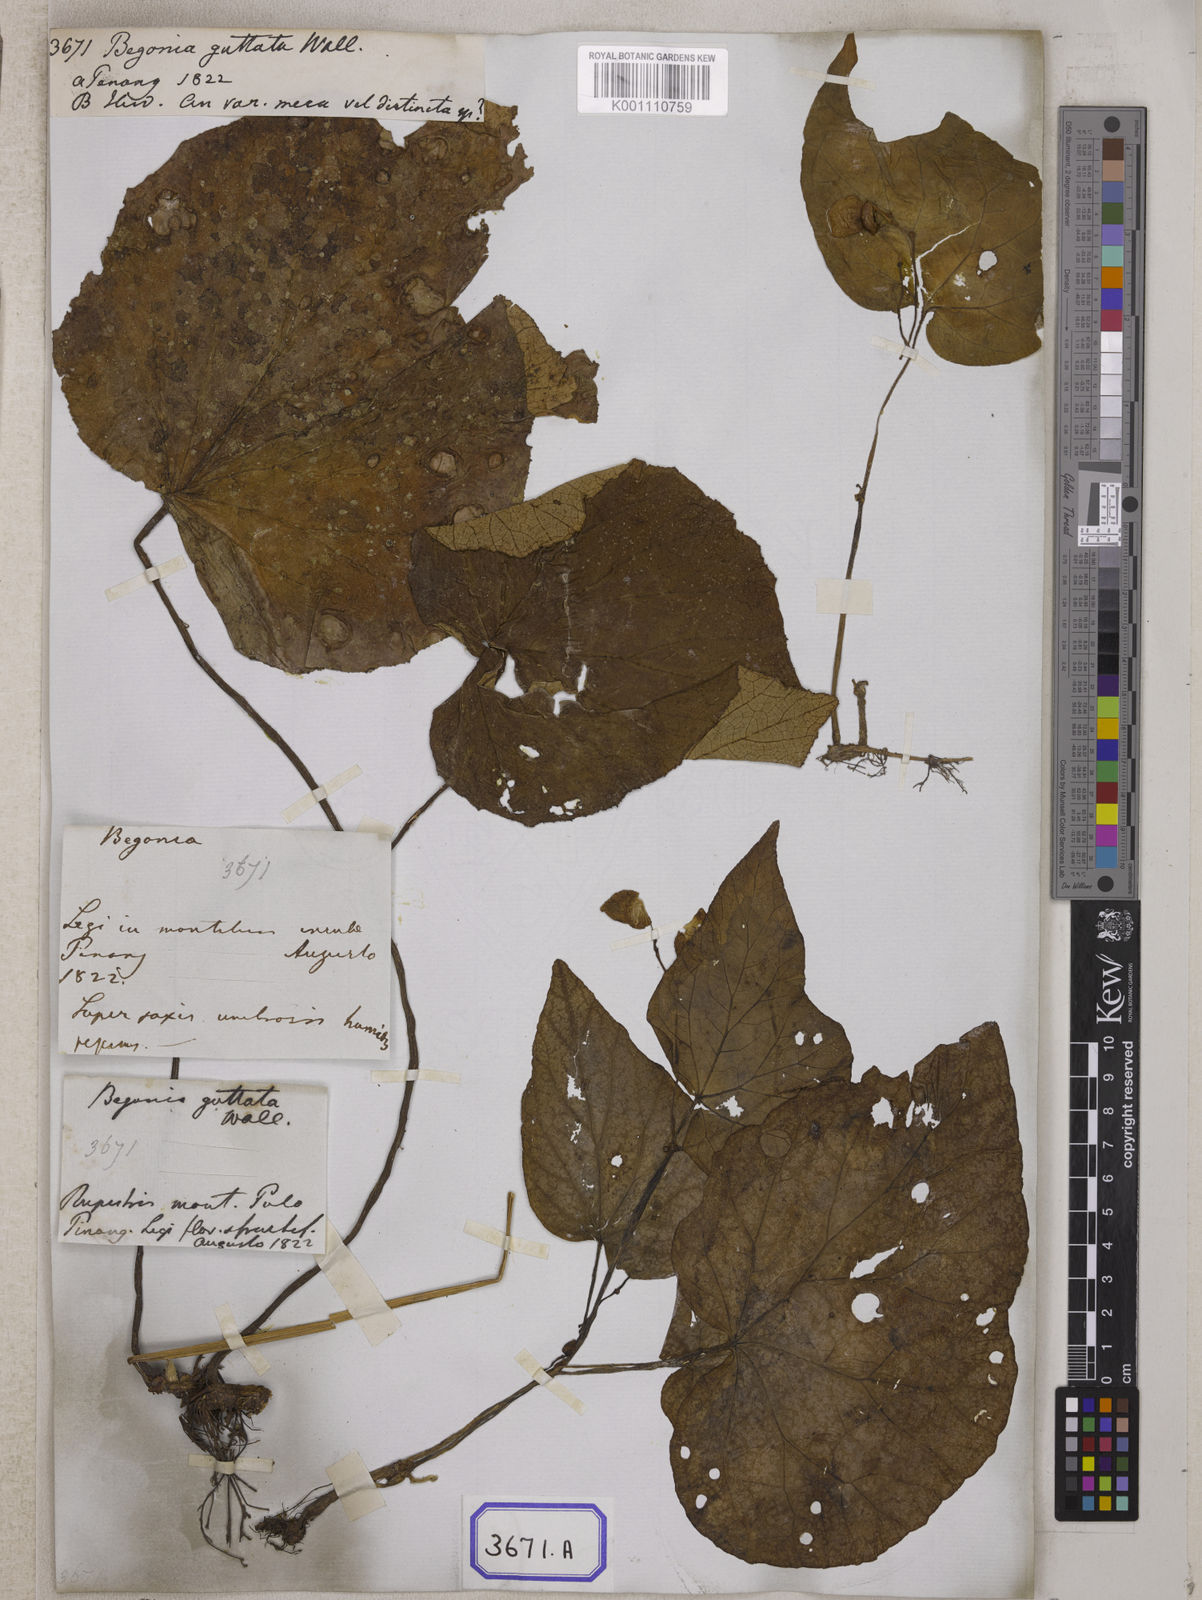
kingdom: Plantae
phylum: Tracheophyta
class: Magnoliopsida
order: Cucurbitales
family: Begoniaceae
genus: Begonia
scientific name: Begonia sinuata
